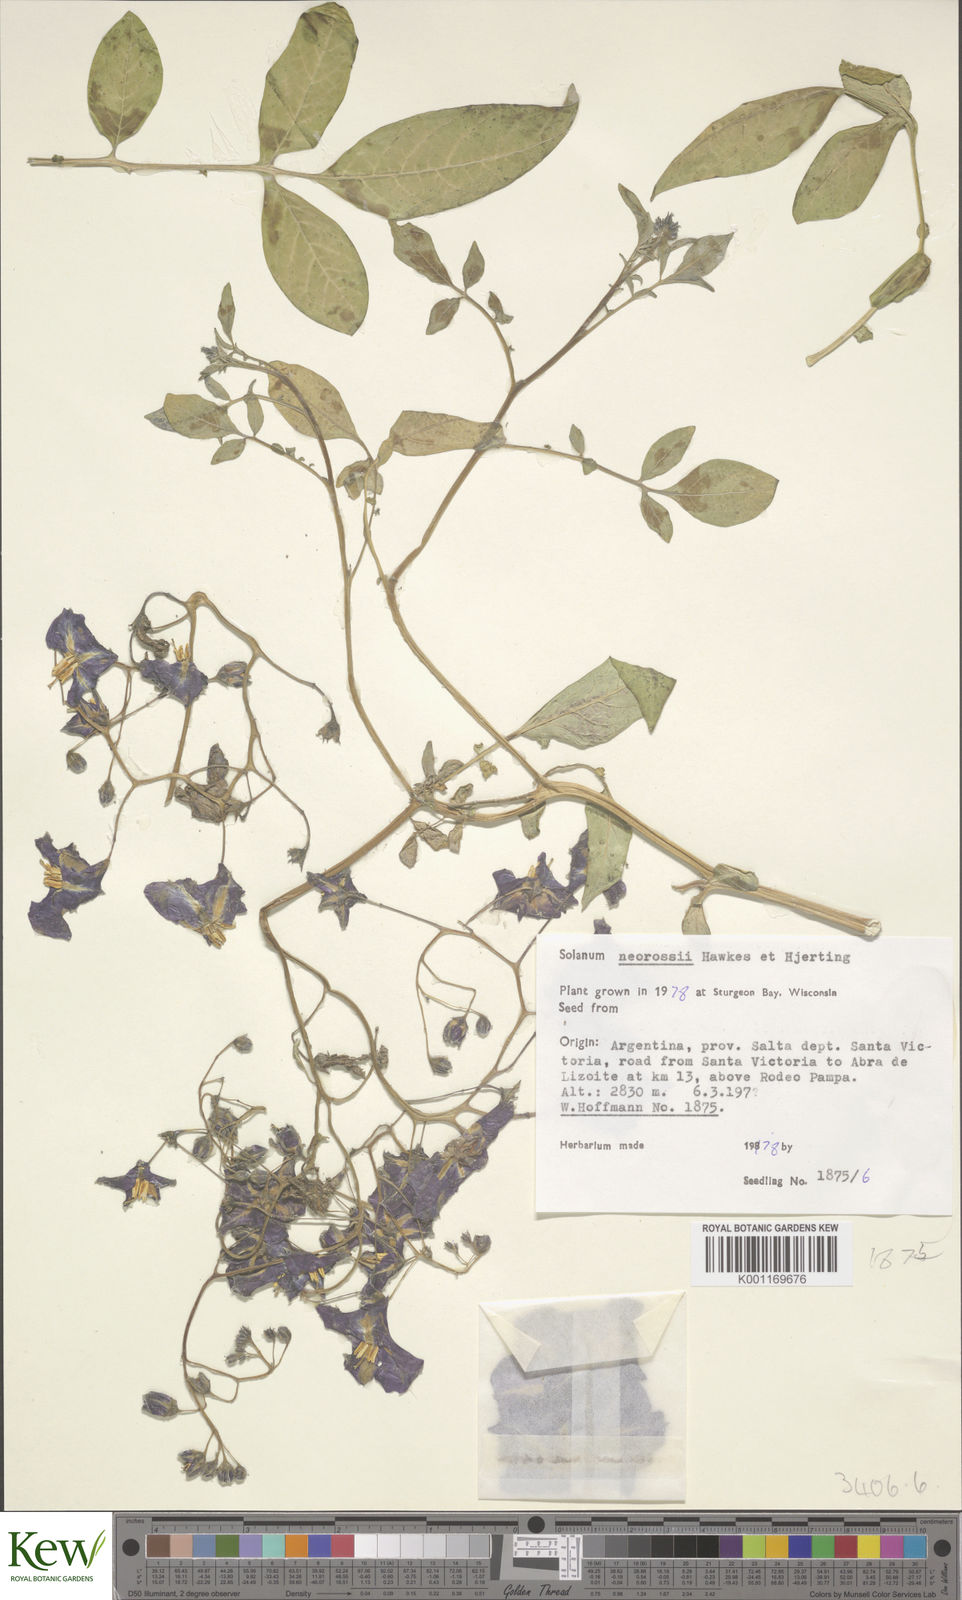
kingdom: Plantae
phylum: Tracheophyta
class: Magnoliopsida
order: Solanales
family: Solanaceae
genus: Solanum
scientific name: Solanum neorossii
